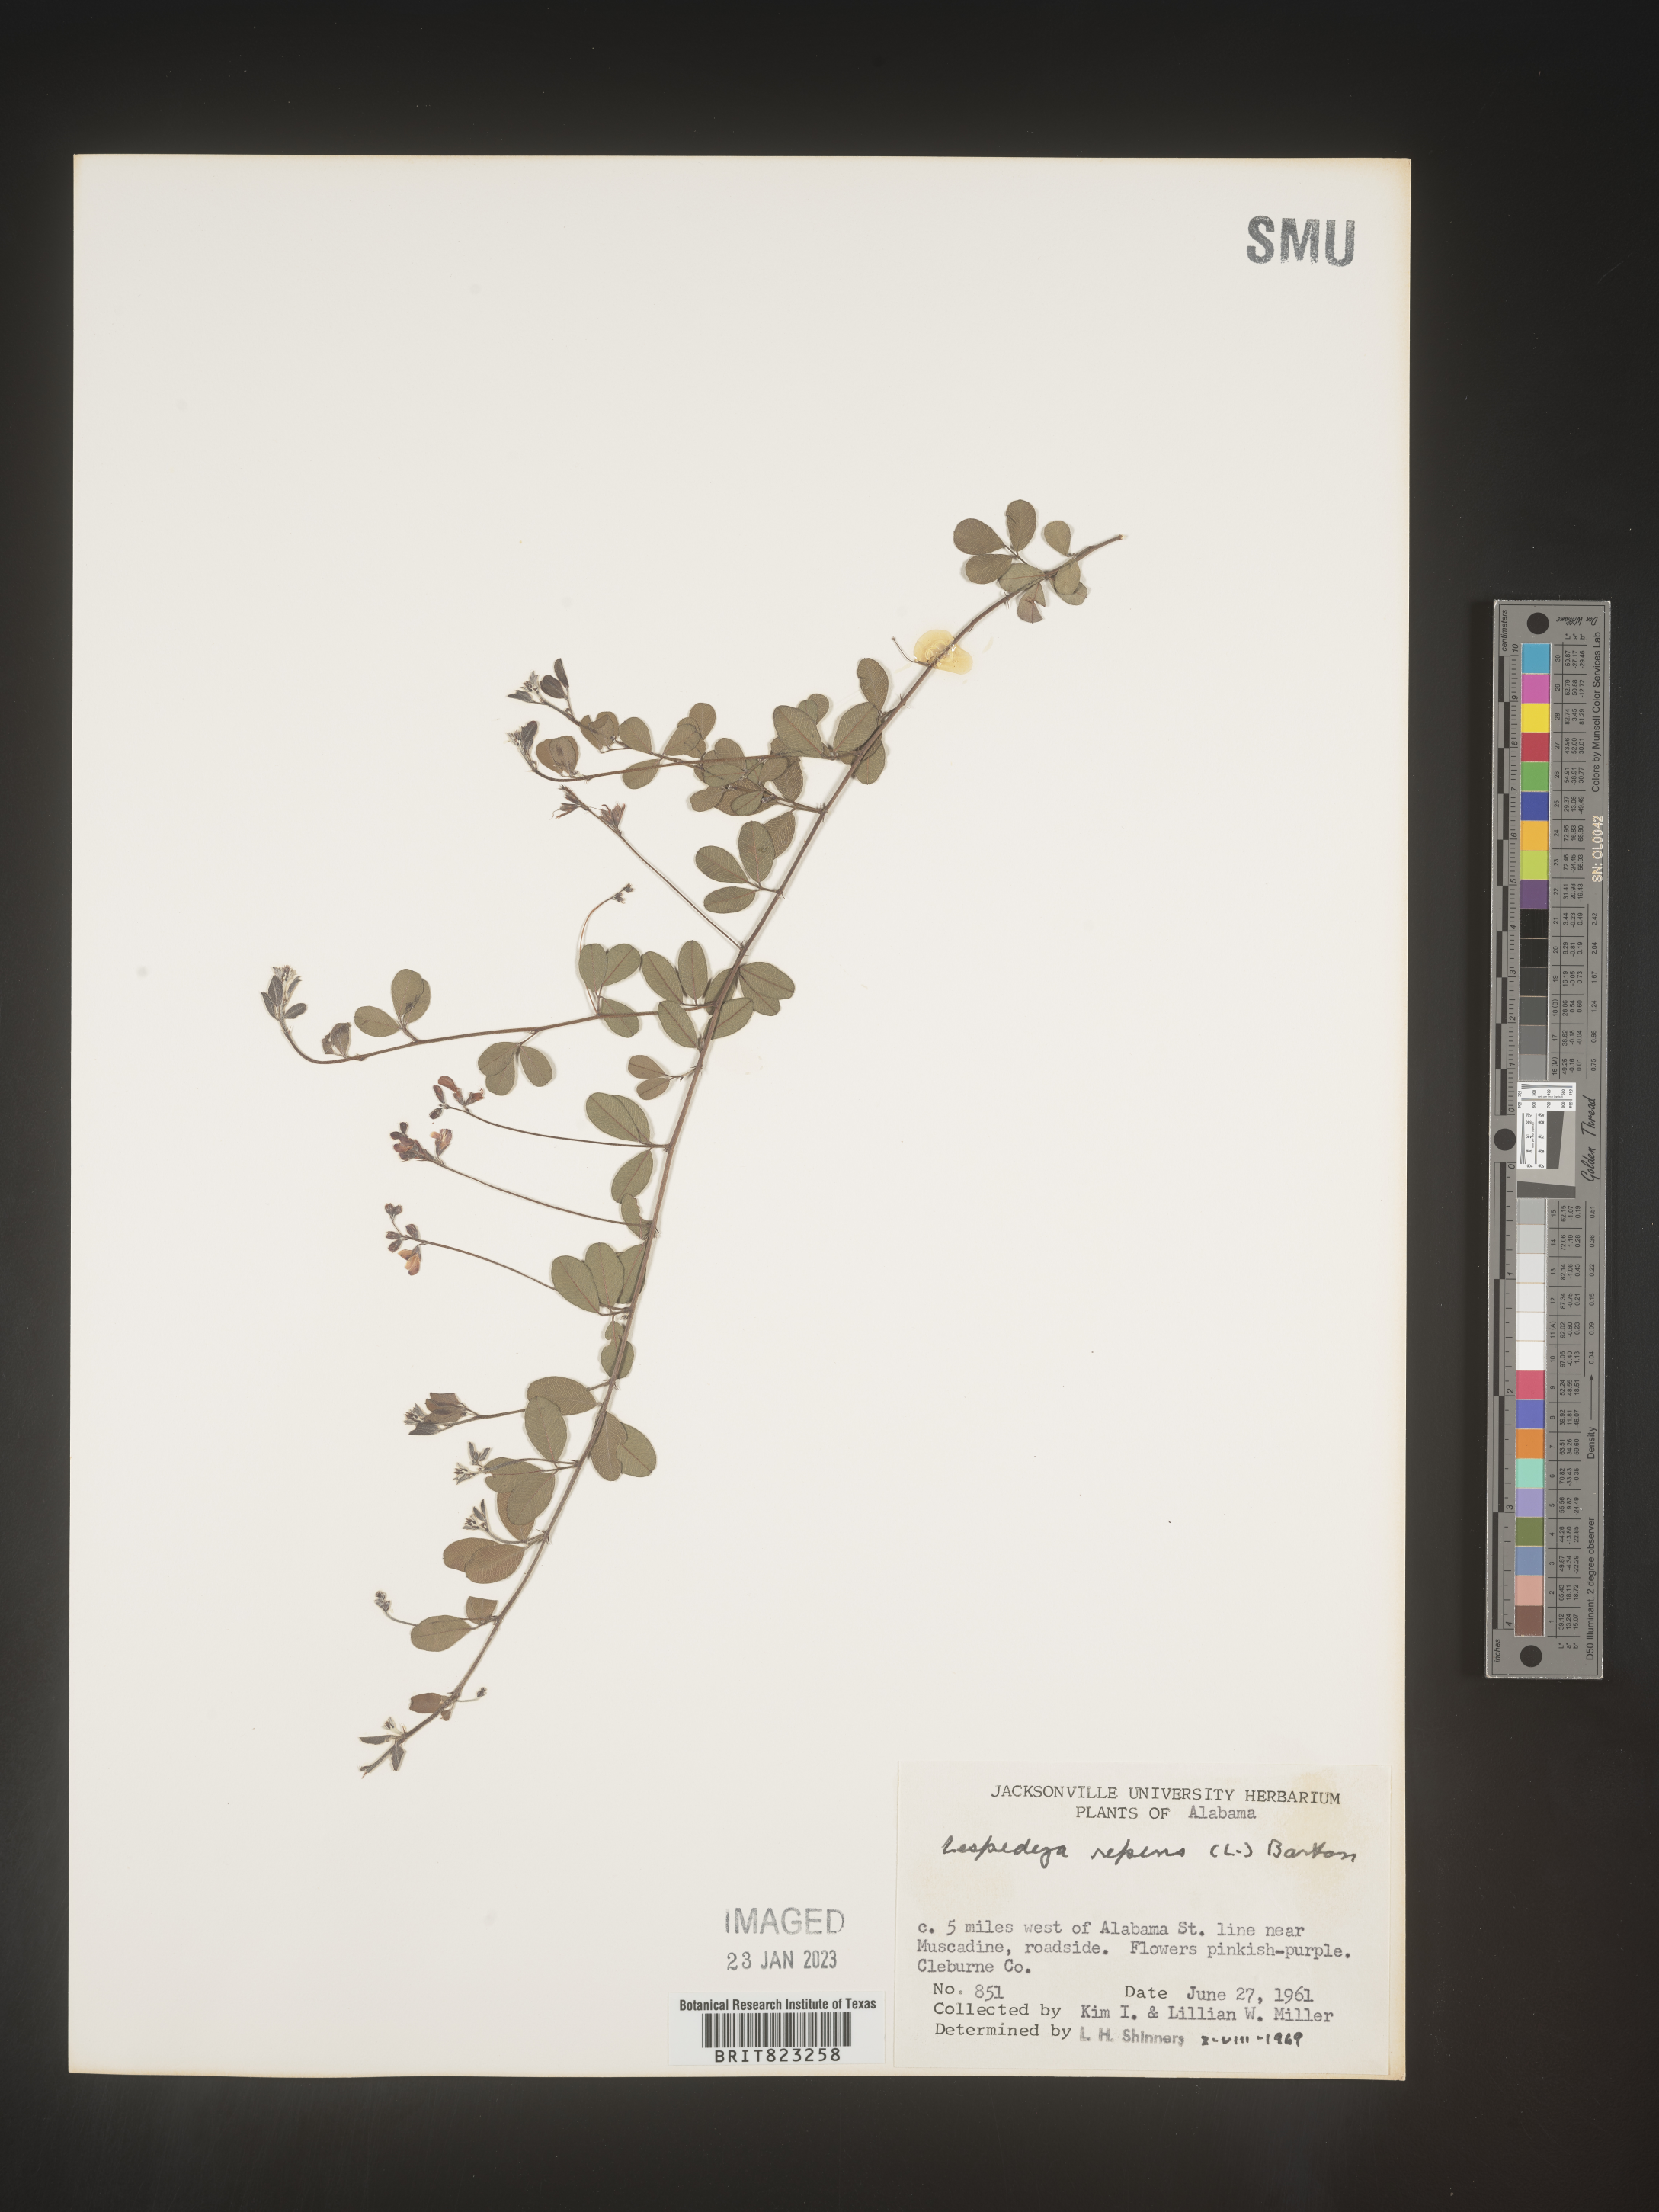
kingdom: Plantae
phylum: Tracheophyta
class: Magnoliopsida
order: Fabales
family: Fabaceae
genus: Lespedeza
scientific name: Lespedeza repens
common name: Creeping bush-clover
